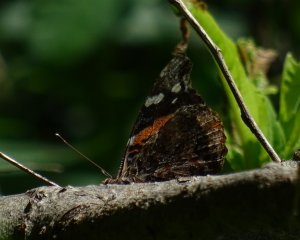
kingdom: Animalia
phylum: Arthropoda
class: Insecta
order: Lepidoptera
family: Nymphalidae
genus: Vanessa
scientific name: Vanessa atalanta
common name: Red Admiral
